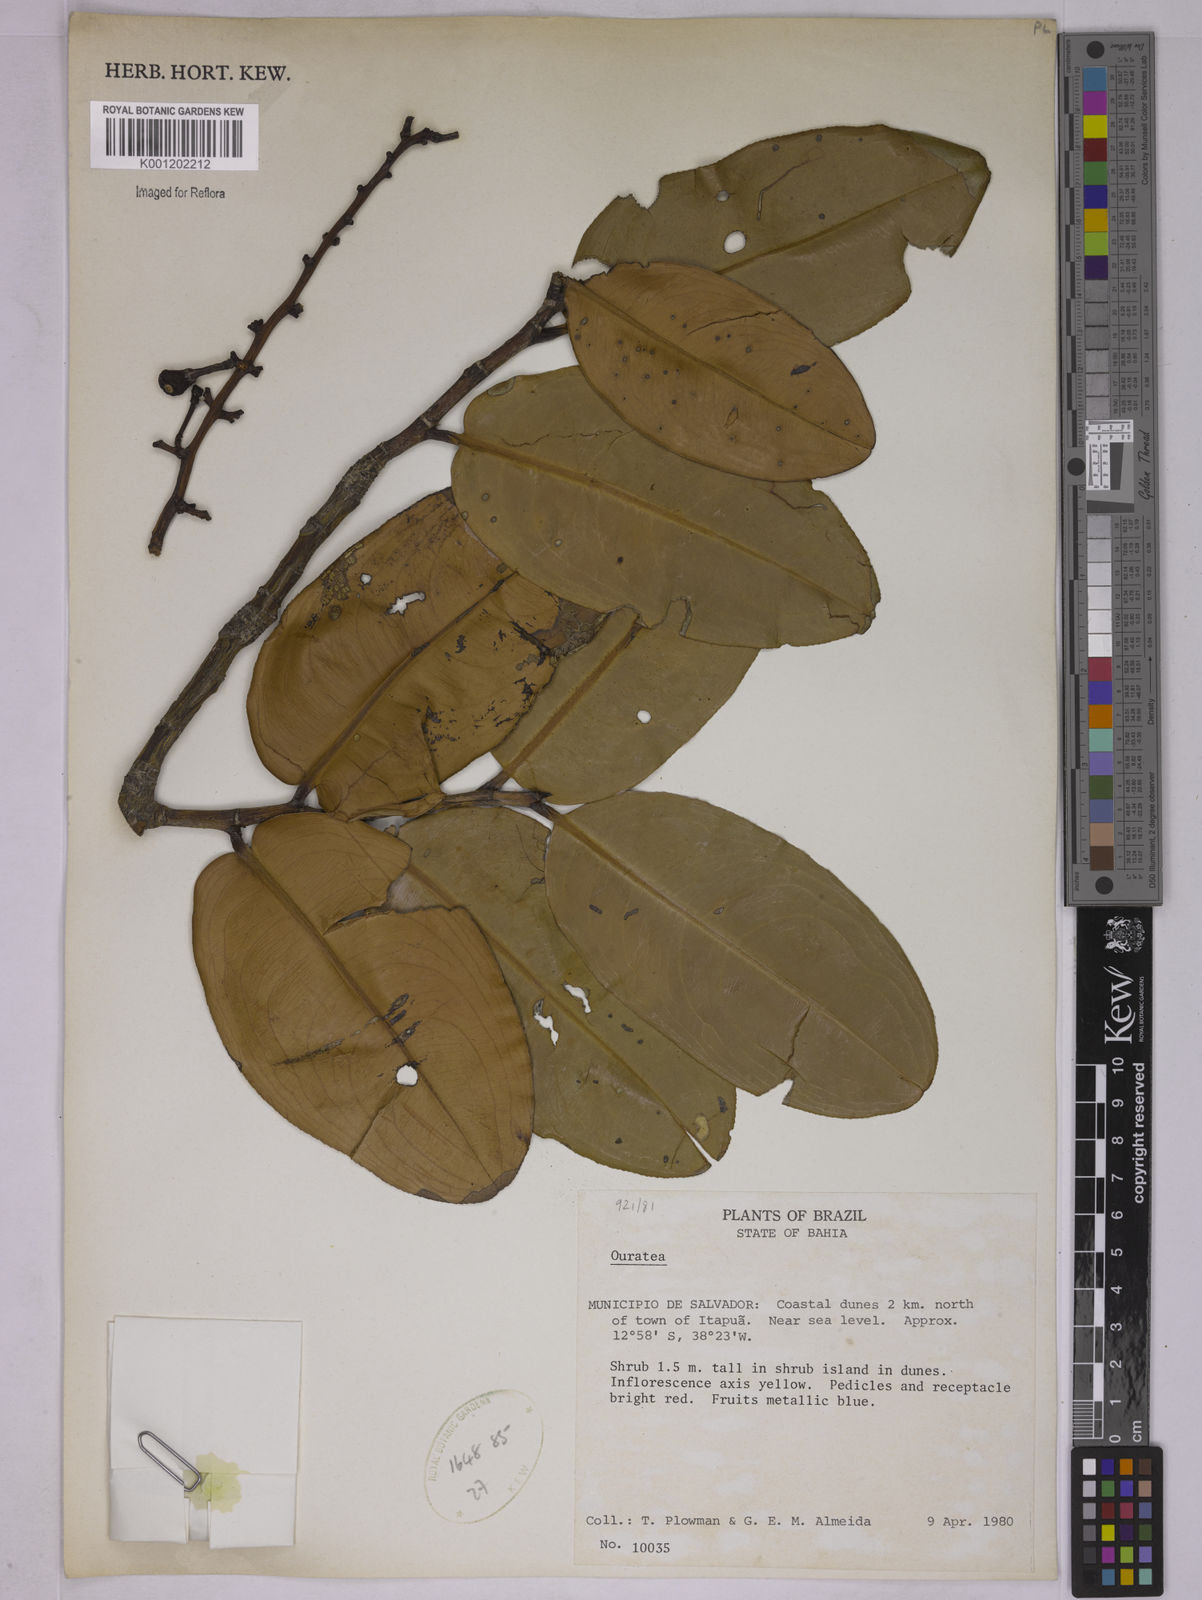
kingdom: Plantae
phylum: Tracheophyta
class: Magnoliopsida
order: Malpighiales
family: Ochnaceae
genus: Ouratea
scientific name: Ouratea
